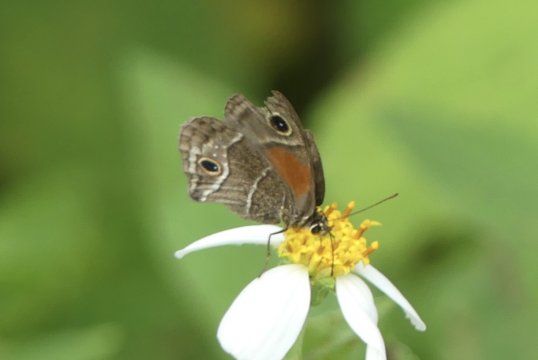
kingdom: Animalia
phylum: Arthropoda
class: Insecta
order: Lepidoptera
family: Nymphalidae
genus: Calisto
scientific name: Calisto obscura
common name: Obscure Calisto
